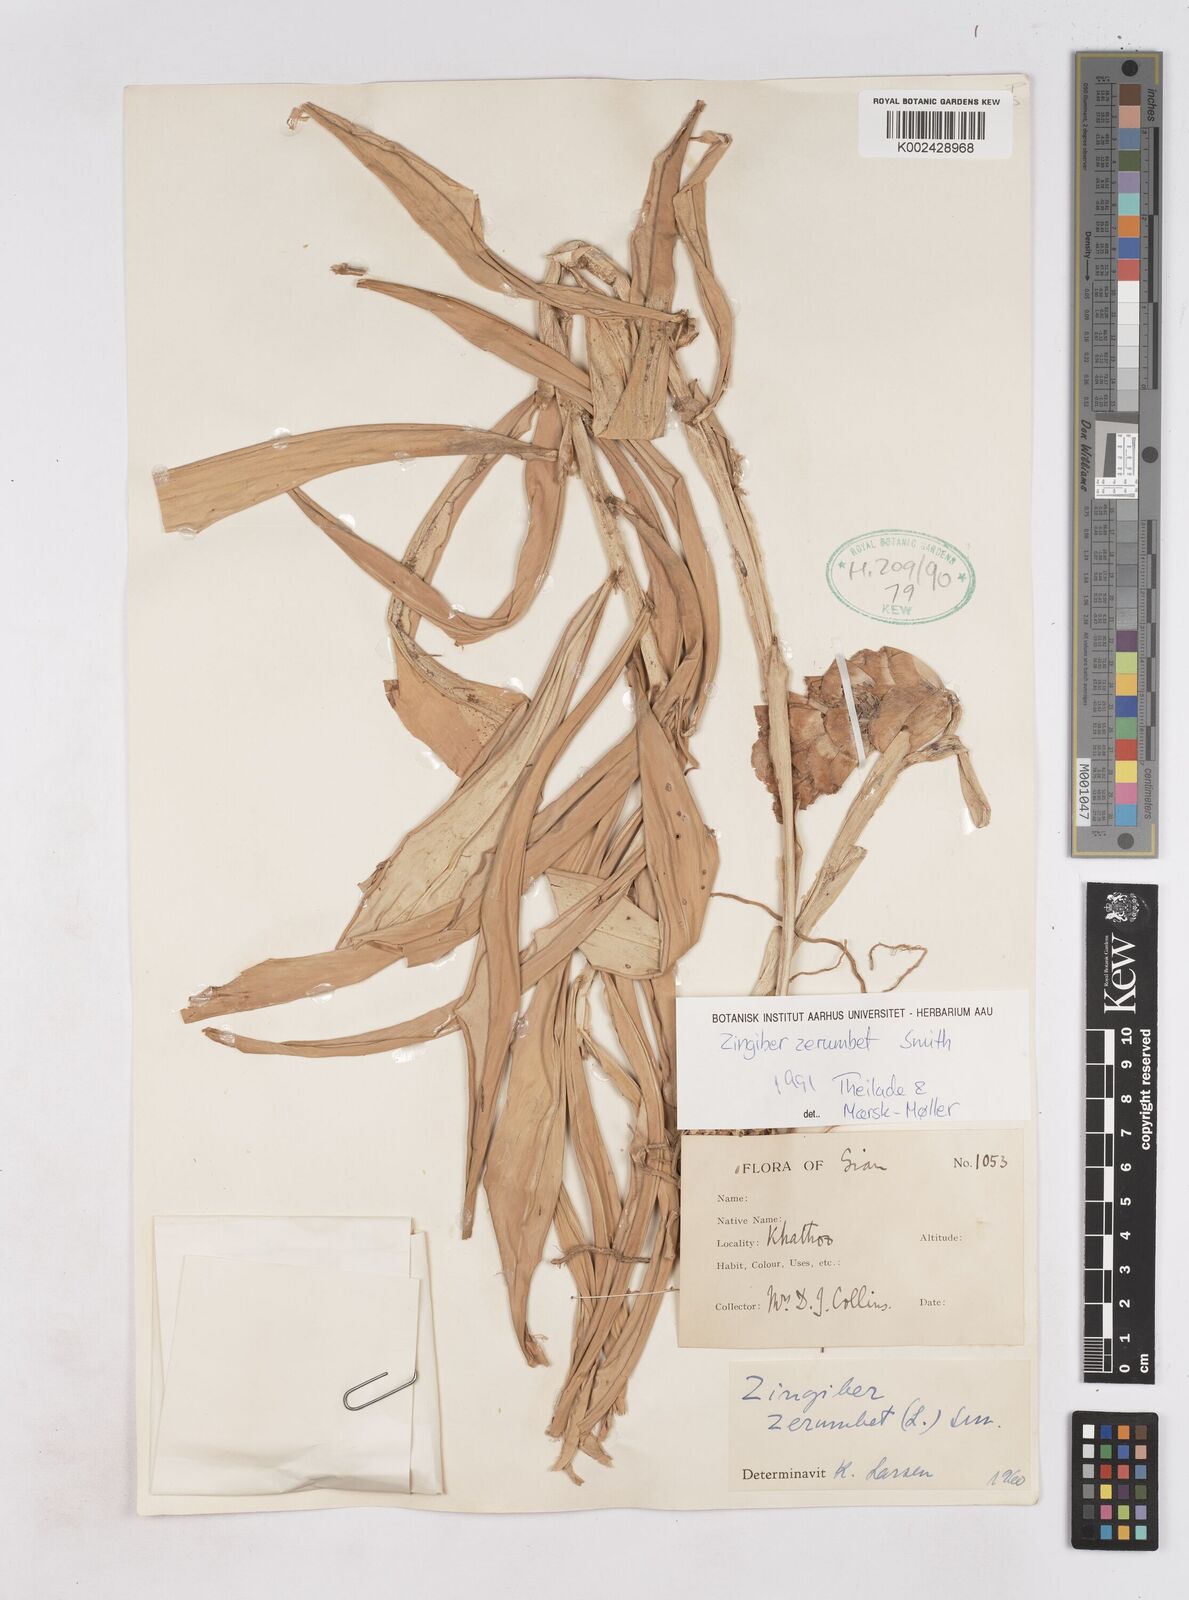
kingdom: Plantae
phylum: Tracheophyta
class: Liliopsida
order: Zingiberales
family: Zingiberaceae
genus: Zingiber
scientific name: Zingiber zerumbet
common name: Bitter ginger
